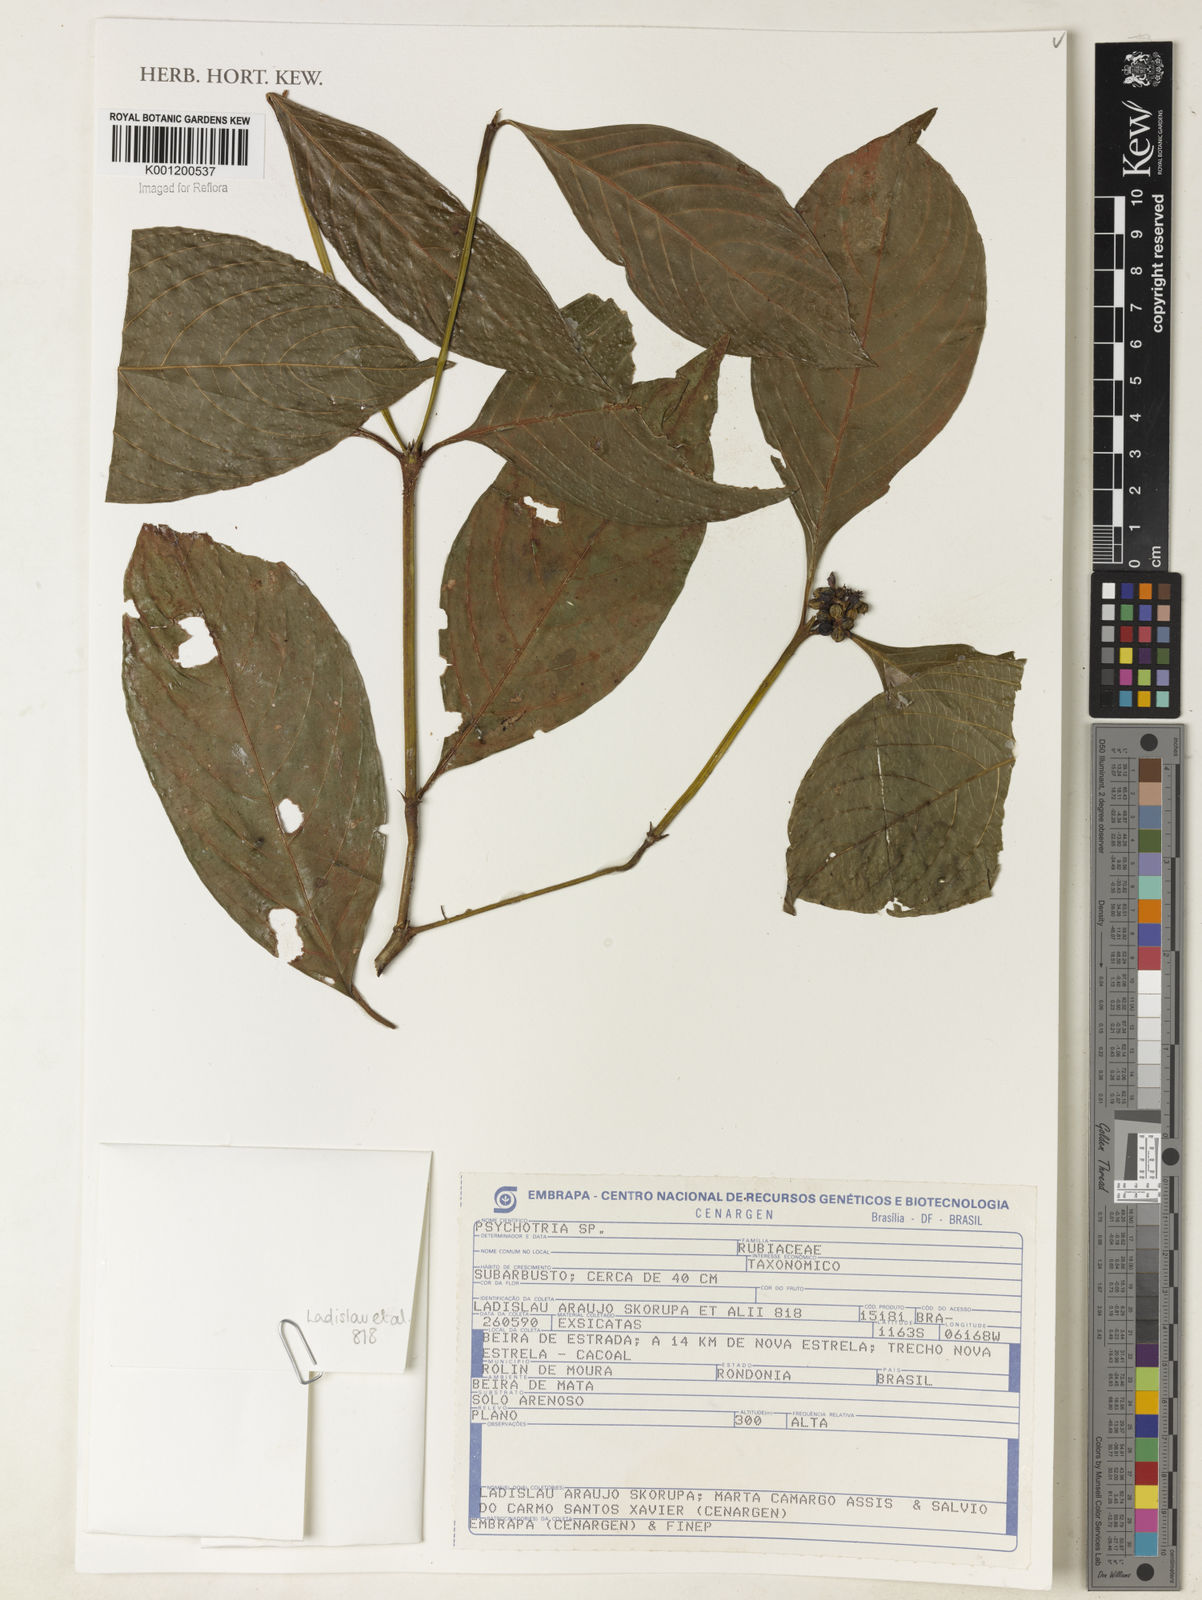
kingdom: Plantae
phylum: Tracheophyta
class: Magnoliopsida
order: Gentianales
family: Rubiaceae
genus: Psychotria
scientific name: Psychotria
